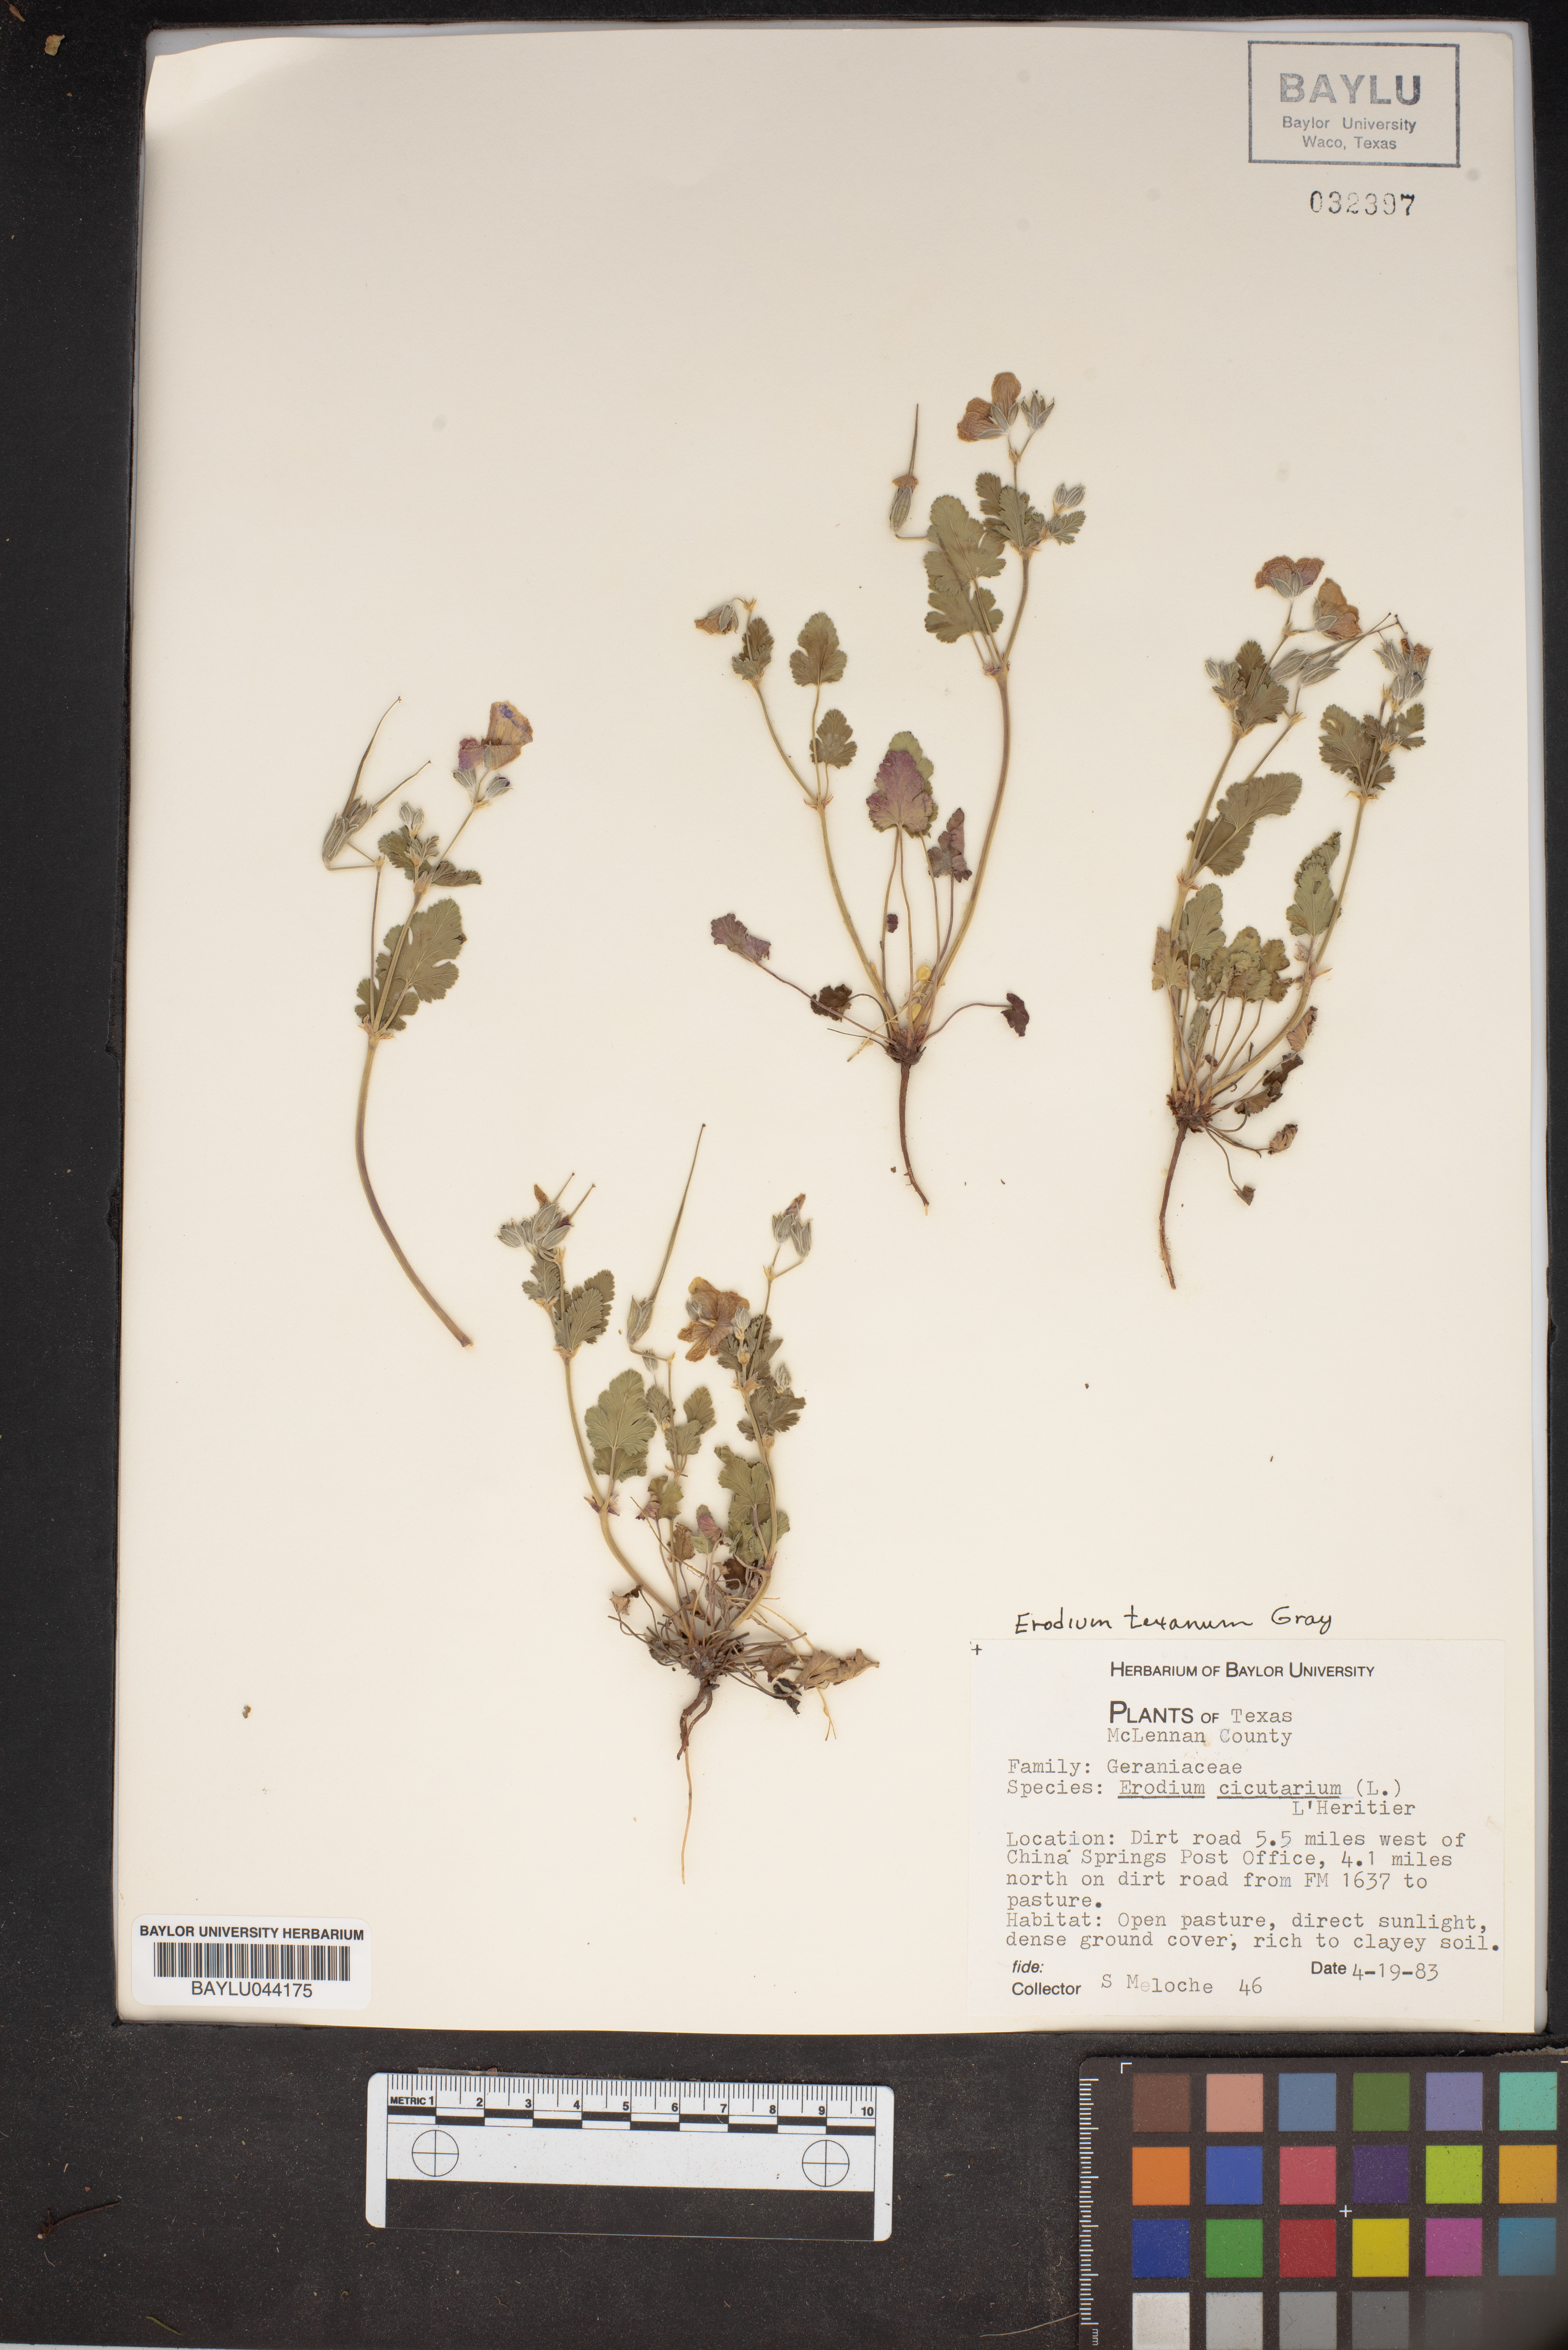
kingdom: Plantae
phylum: Tracheophyta
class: Magnoliopsida
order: Geraniales
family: Geraniaceae
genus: Erodium
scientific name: Erodium cicutarium
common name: Common stork's-bill
